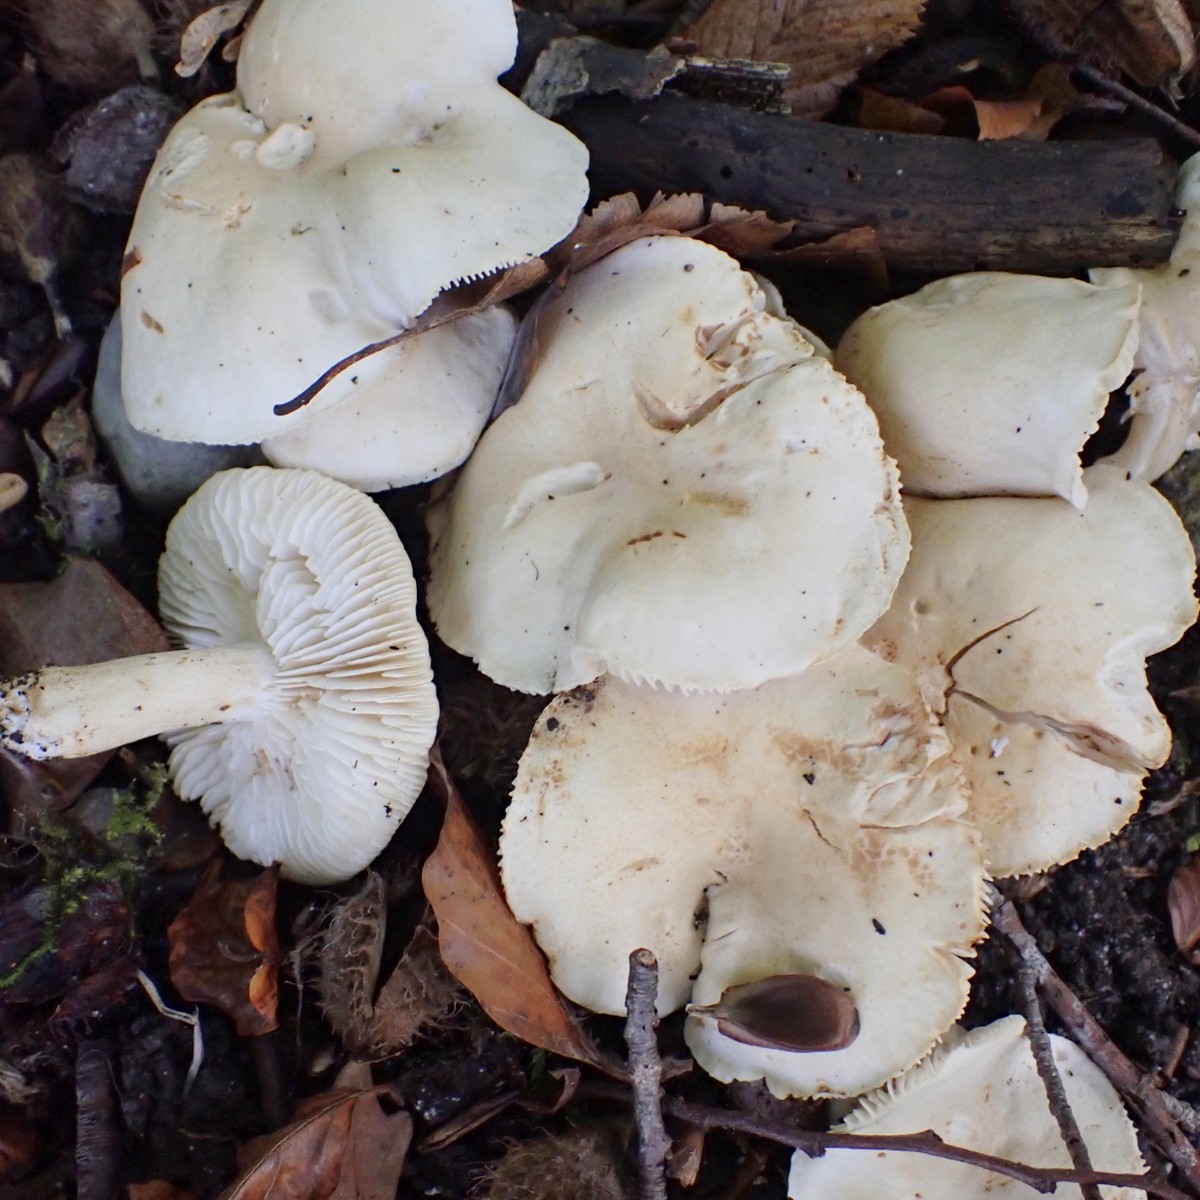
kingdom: Fungi
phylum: Basidiomycota
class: Agaricomycetes
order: Agaricales
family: Tricholomataceae
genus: Tricholoma
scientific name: Tricholoma lascivum
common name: stinkende ridderhat
